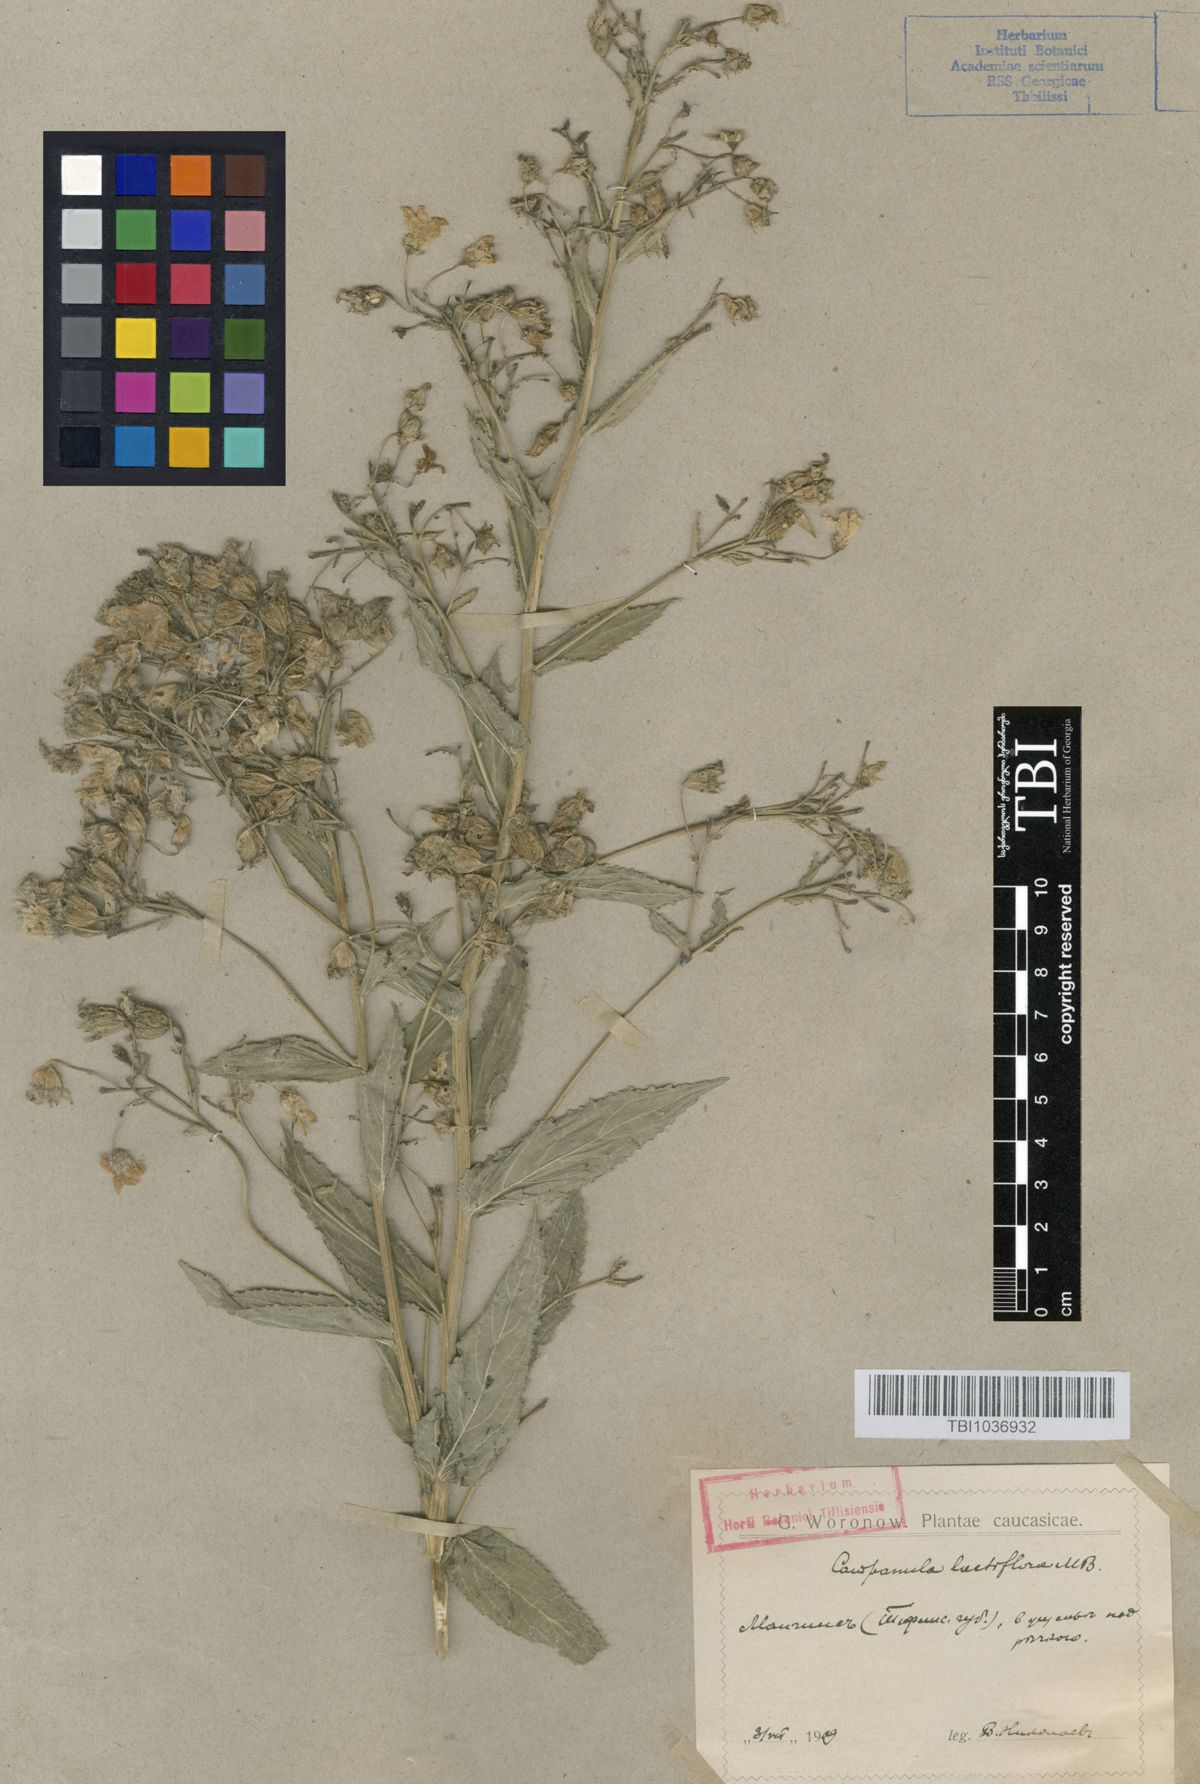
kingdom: Plantae
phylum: Tracheophyta
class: Magnoliopsida
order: Asterales
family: Campanulaceae
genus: Campanula
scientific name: Campanula lactiflora
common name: Milky bellflower
